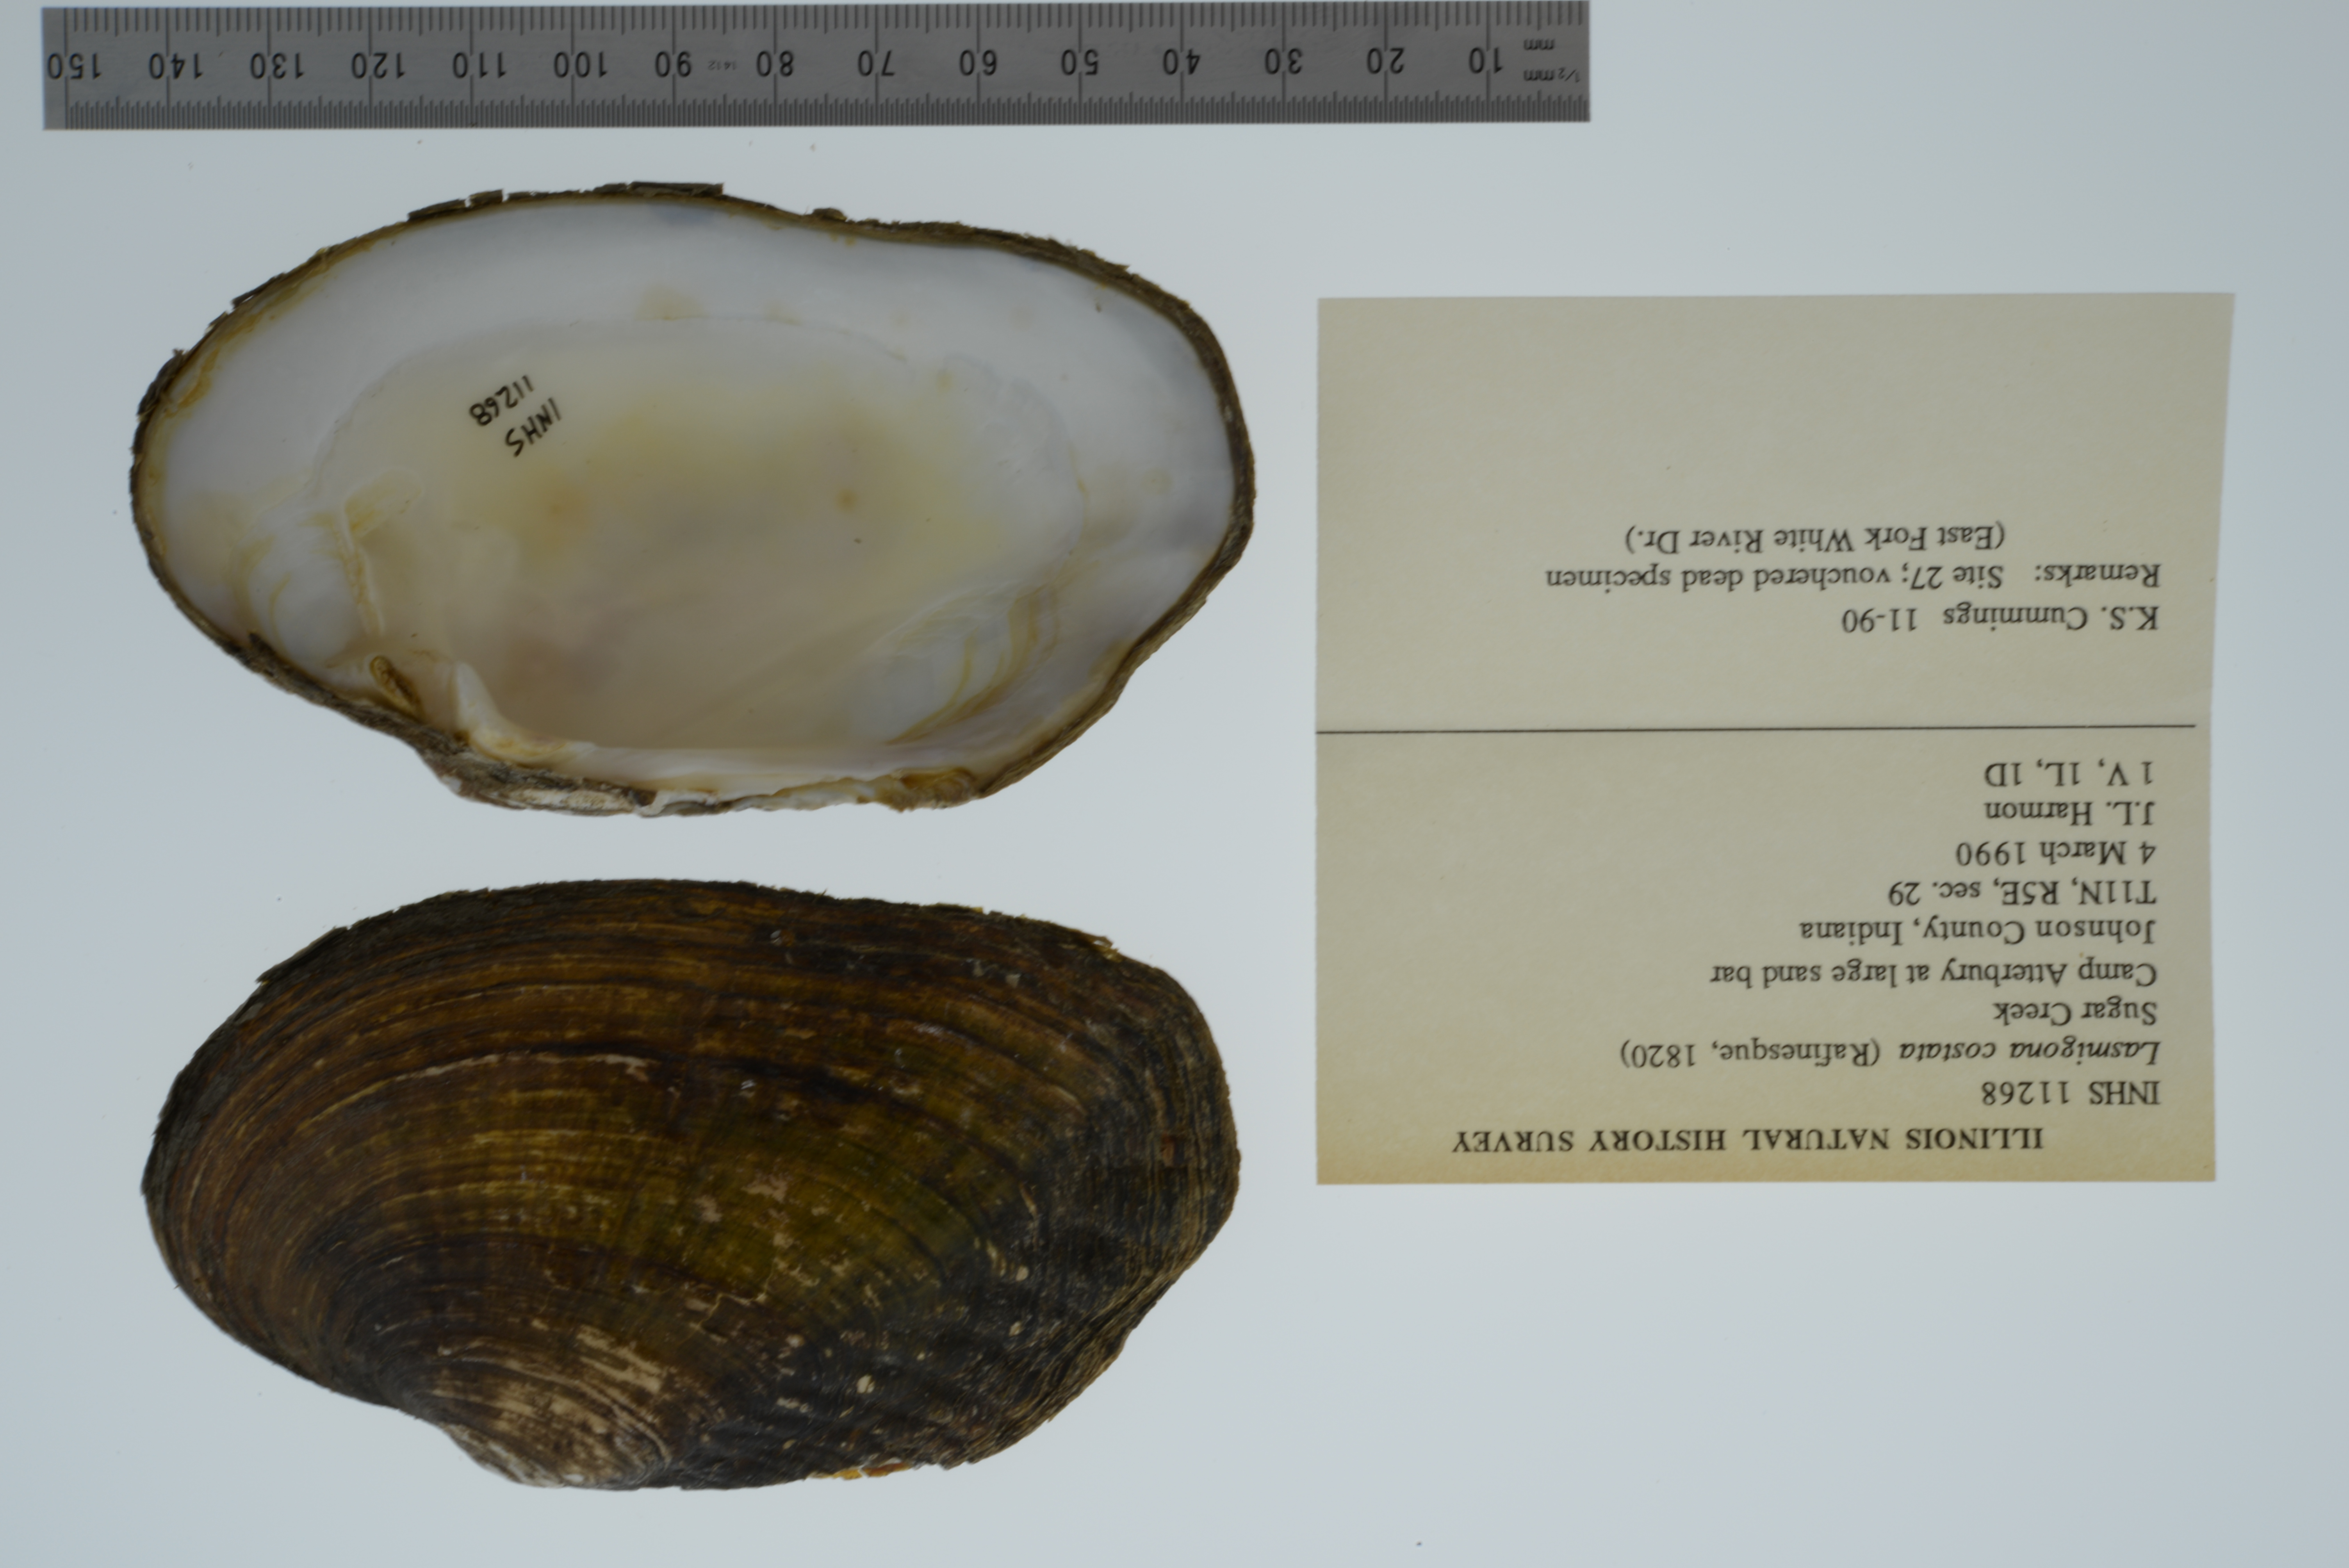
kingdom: Animalia
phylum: Mollusca
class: Bivalvia
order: Unionida
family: Unionidae
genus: Lasmigona
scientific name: Lasmigona costata
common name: Flutedshell
